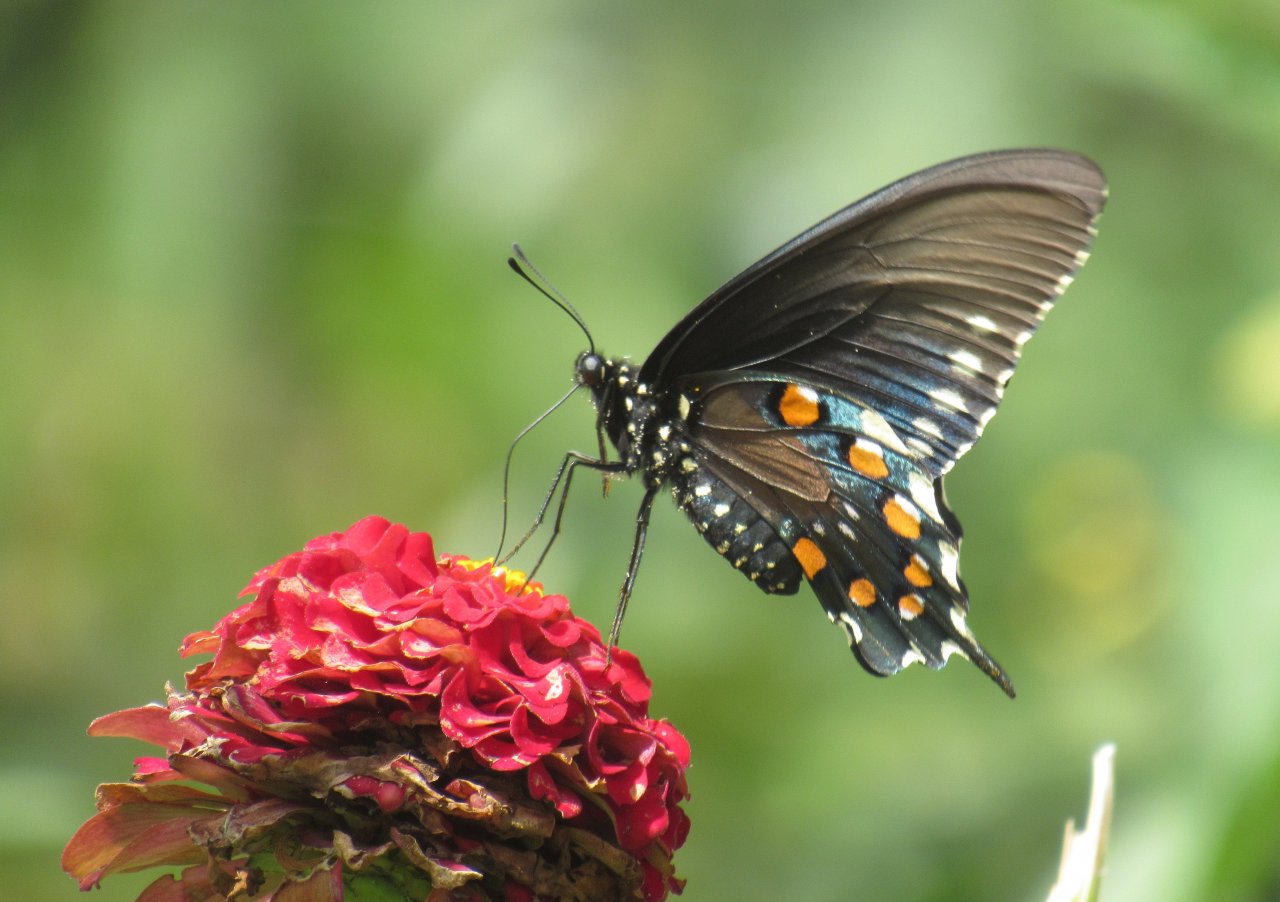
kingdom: Animalia
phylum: Arthropoda
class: Insecta
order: Lepidoptera
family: Papilionidae
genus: Battus
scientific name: Battus philenor
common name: Pipevine Swallowtail
